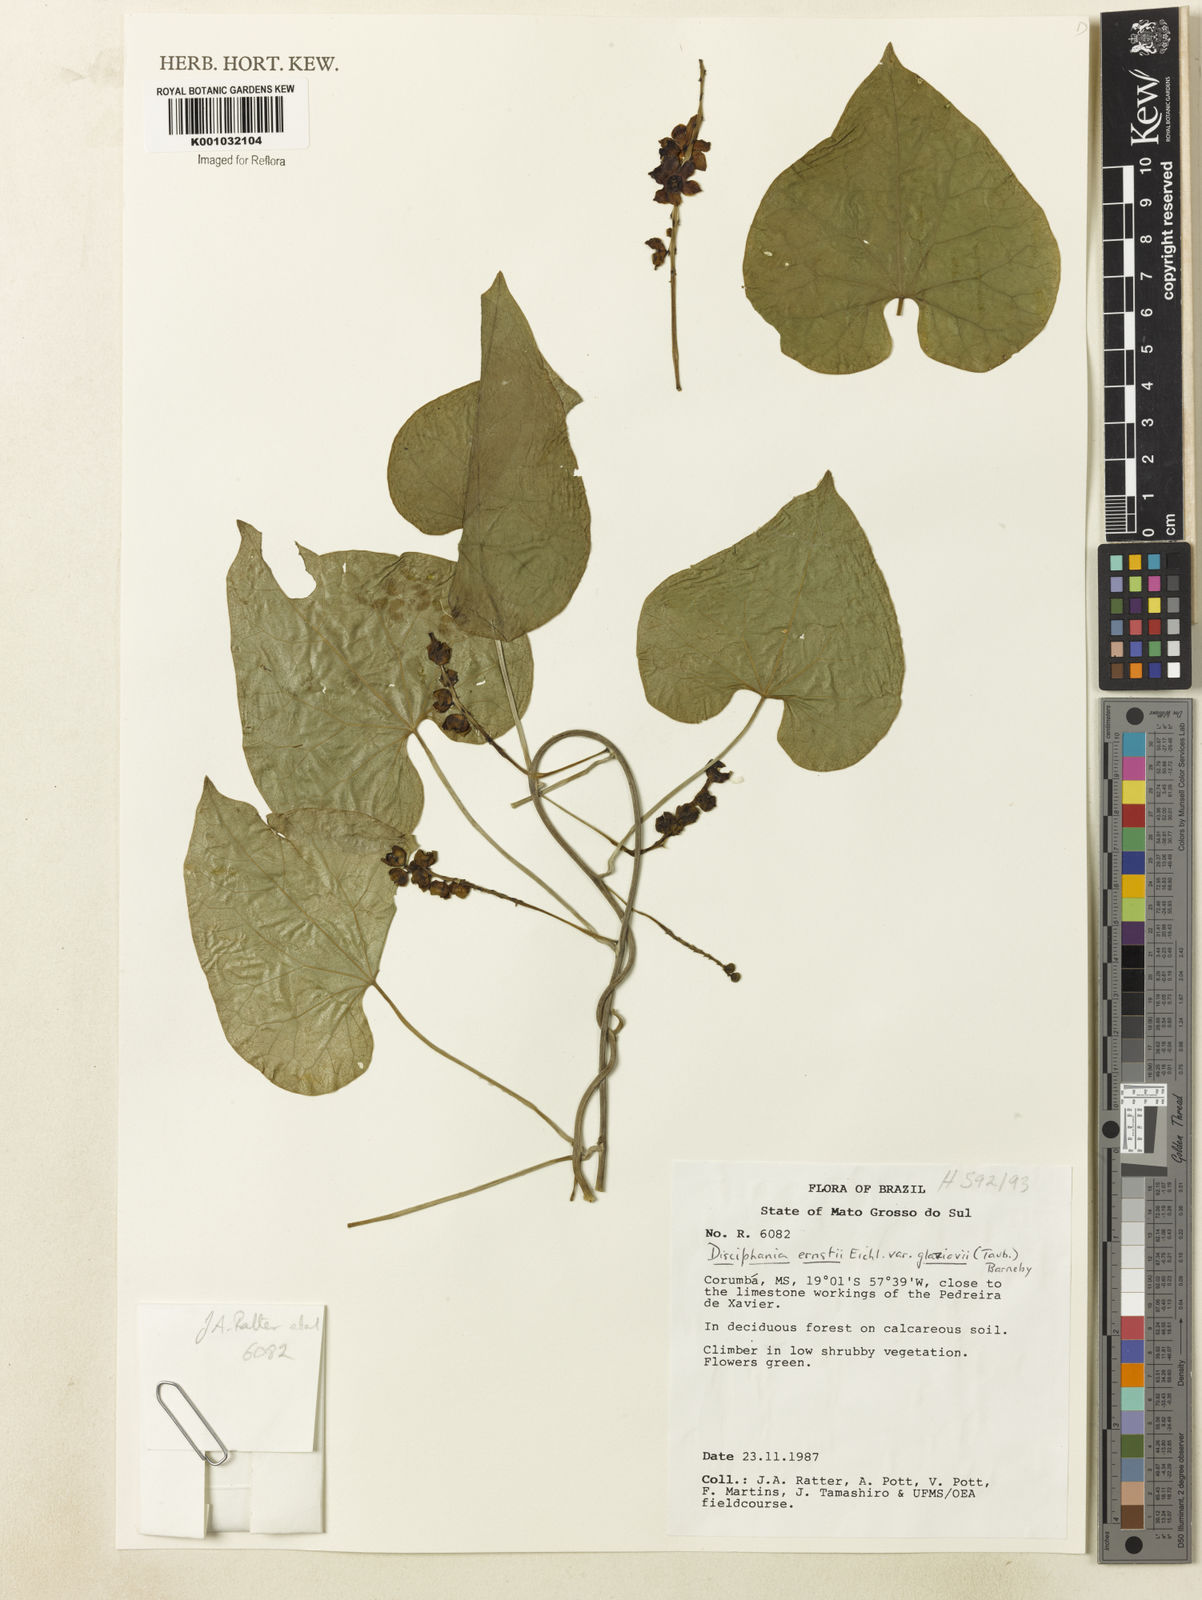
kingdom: Plantae
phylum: Tracheophyta
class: Magnoliopsida
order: Ranunculales
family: Menispermaceae
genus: Disciphania
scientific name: Disciphania ernstii
